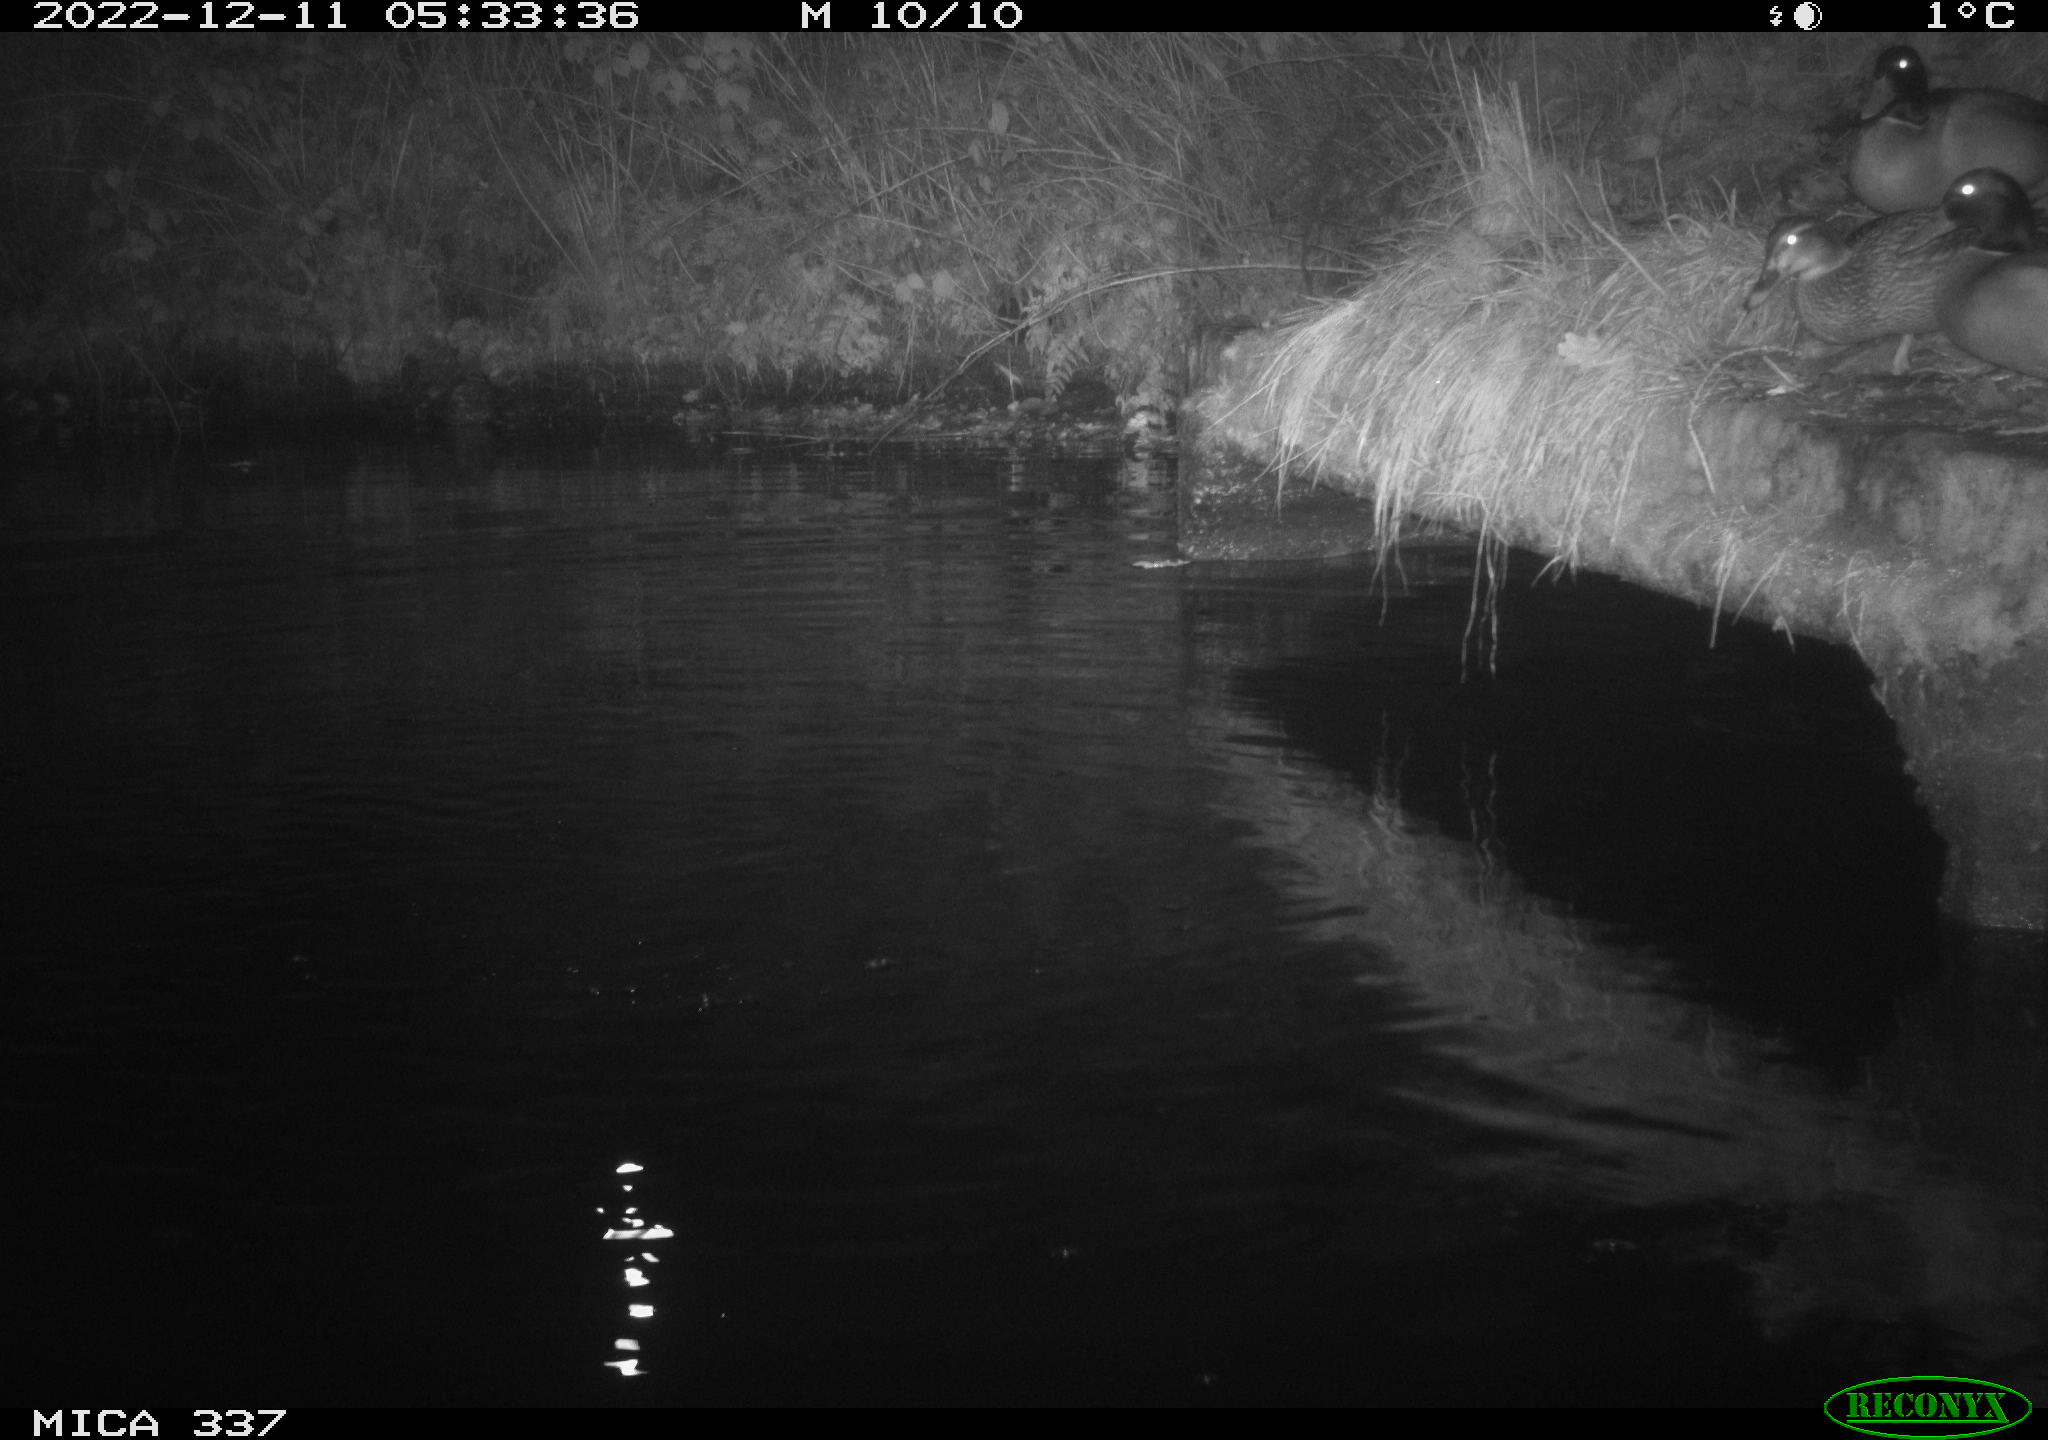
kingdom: Animalia
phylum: Chordata
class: Aves
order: Anseriformes
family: Anatidae
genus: Anas
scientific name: Anas
